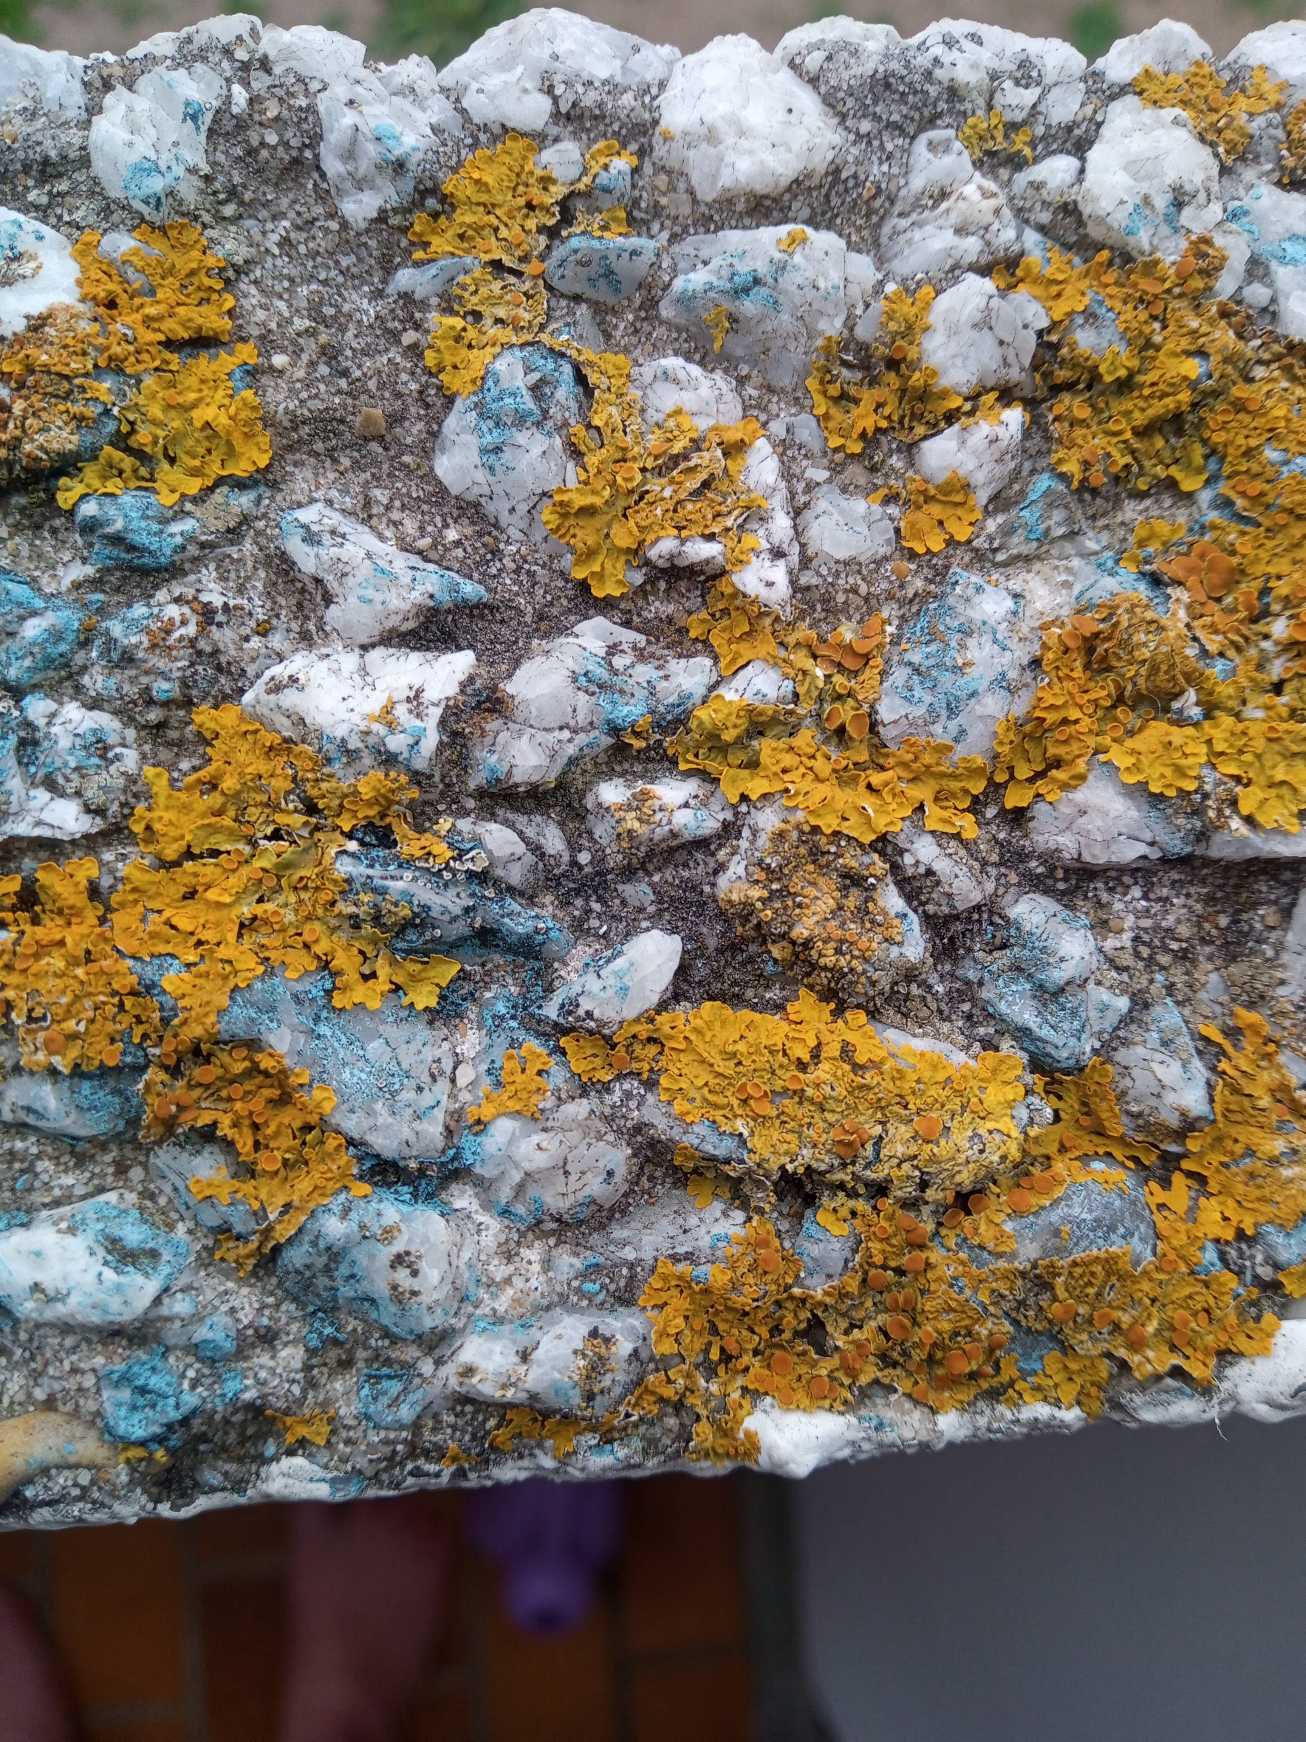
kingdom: Fungi
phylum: Ascomycota
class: Lecanoromycetes
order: Teloschistales
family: Teloschistaceae
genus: Xanthoria
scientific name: Xanthoria parietina
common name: Almindelig væggelav
